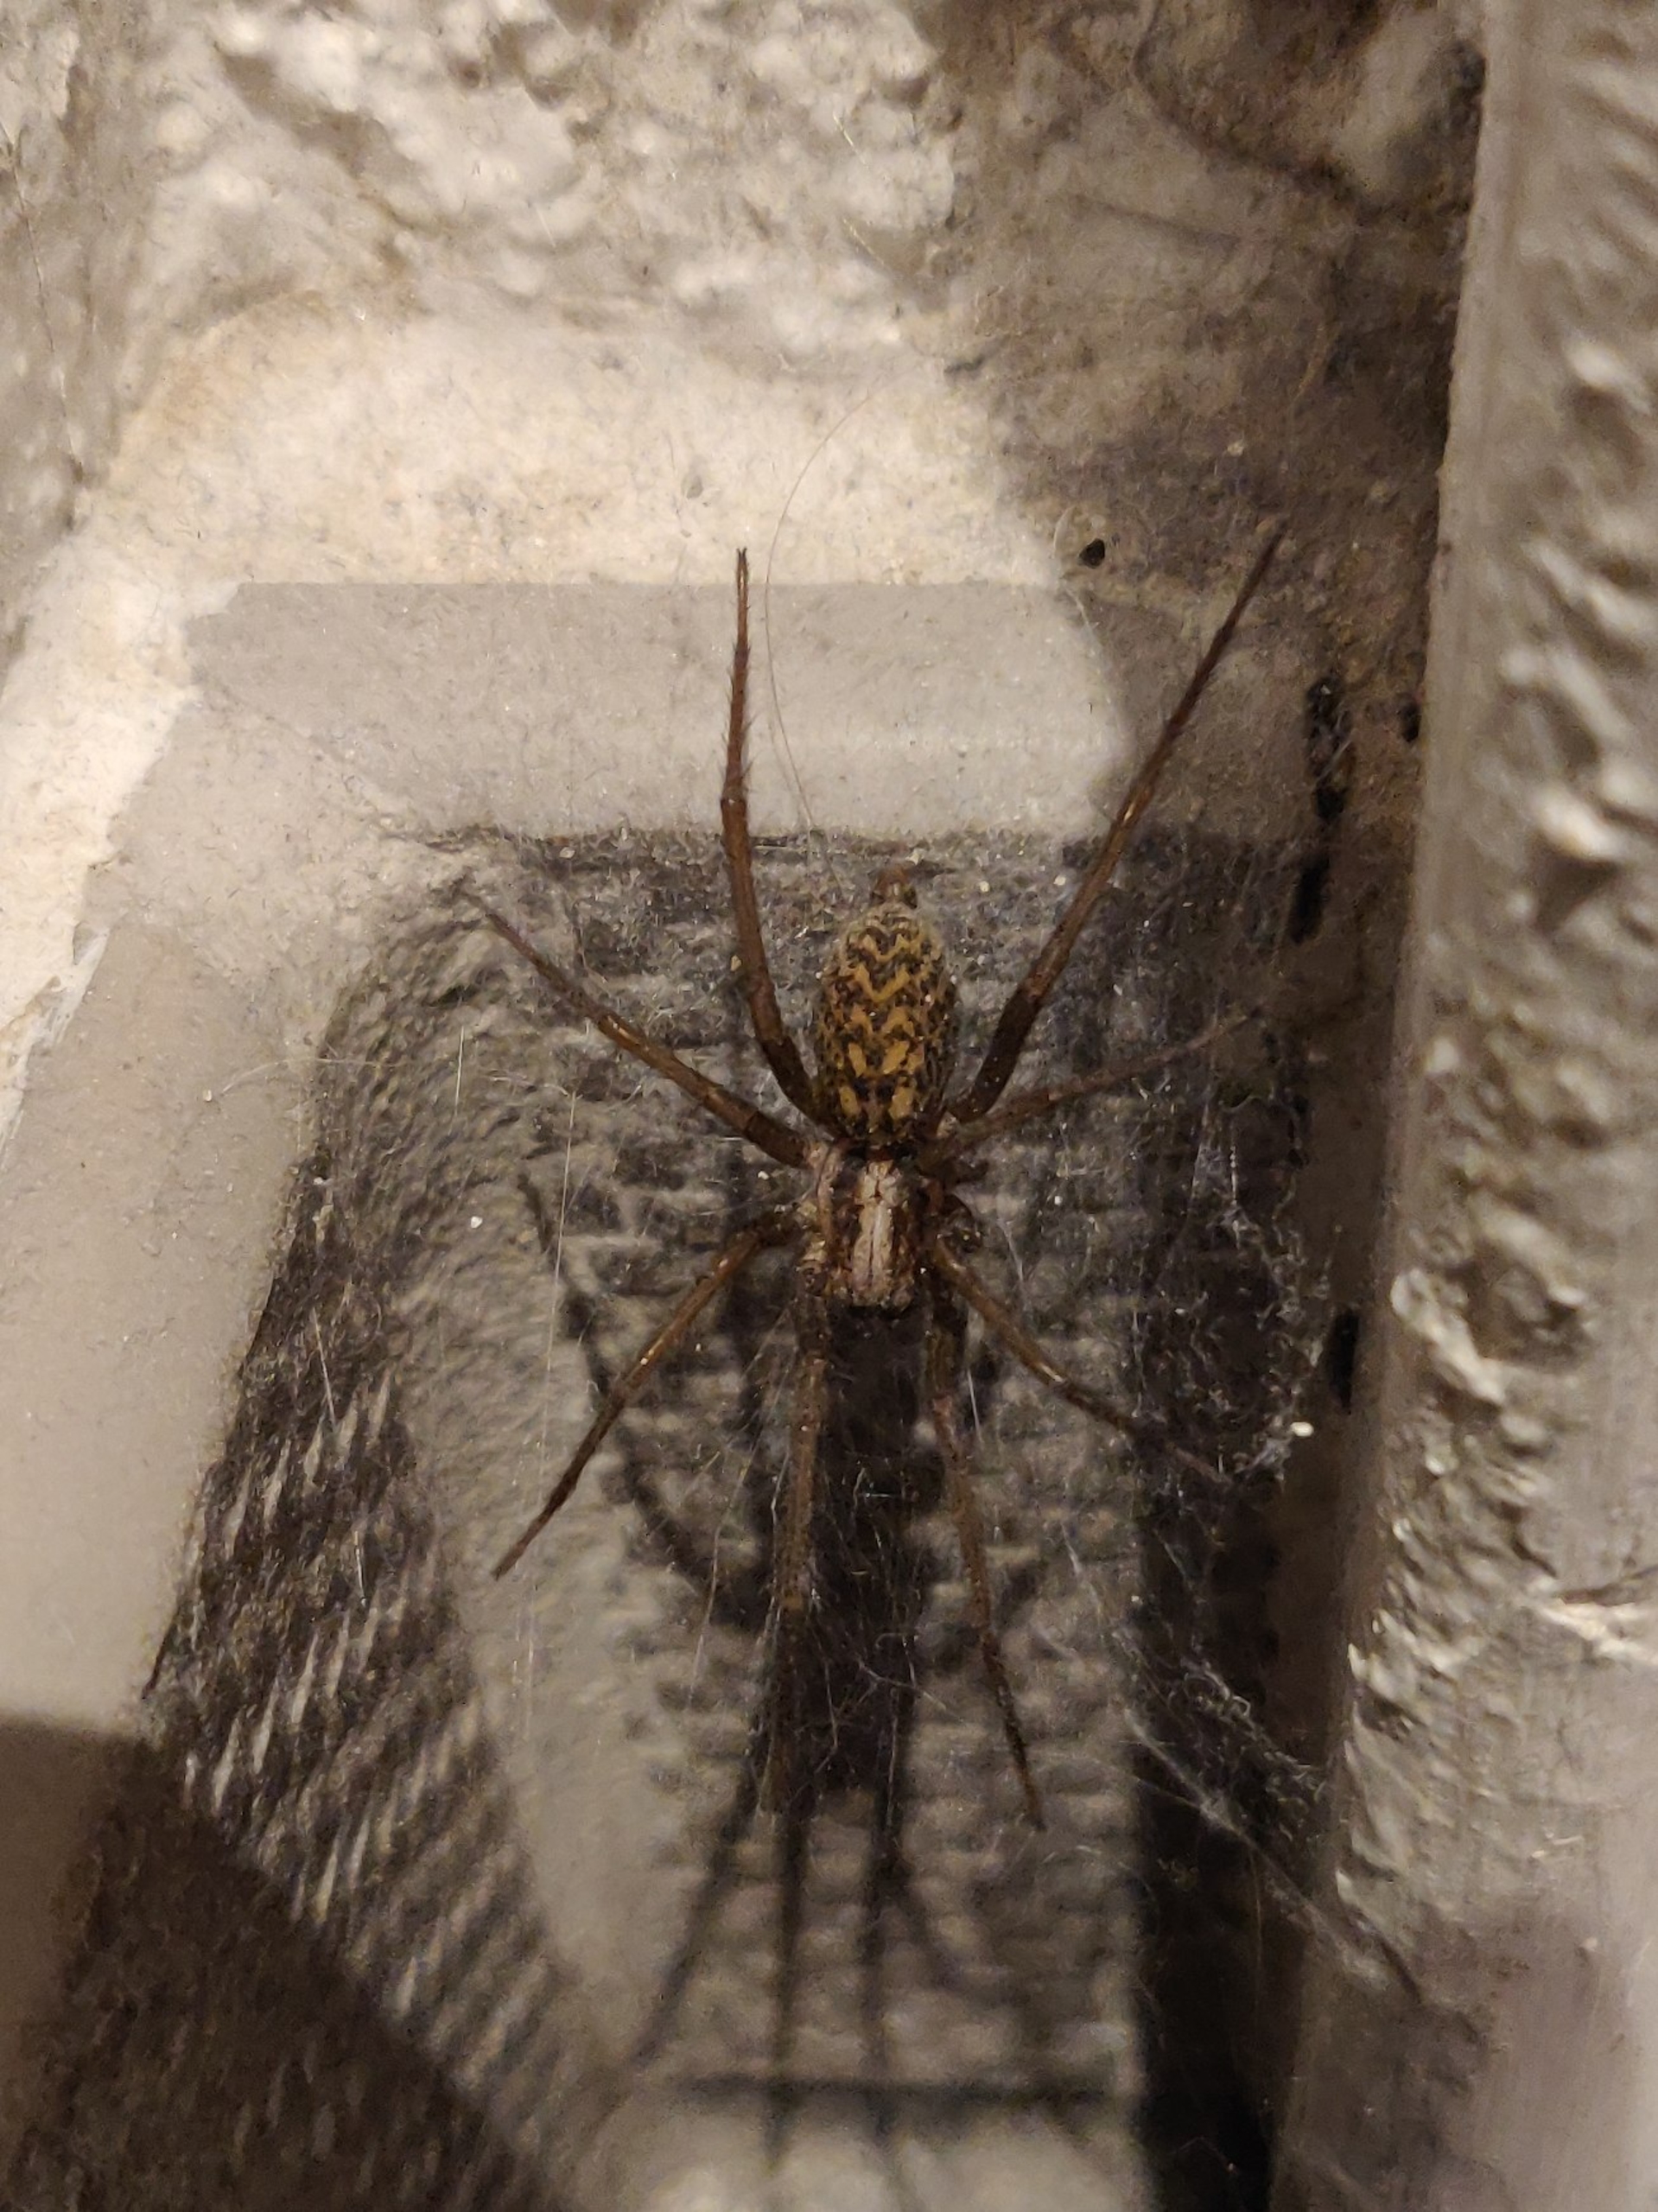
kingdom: Animalia
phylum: Arthropoda
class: Arachnida
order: Araneae
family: Agelenidae
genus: Eratigena
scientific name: Eratigena atrica
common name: Stor husedderkop
